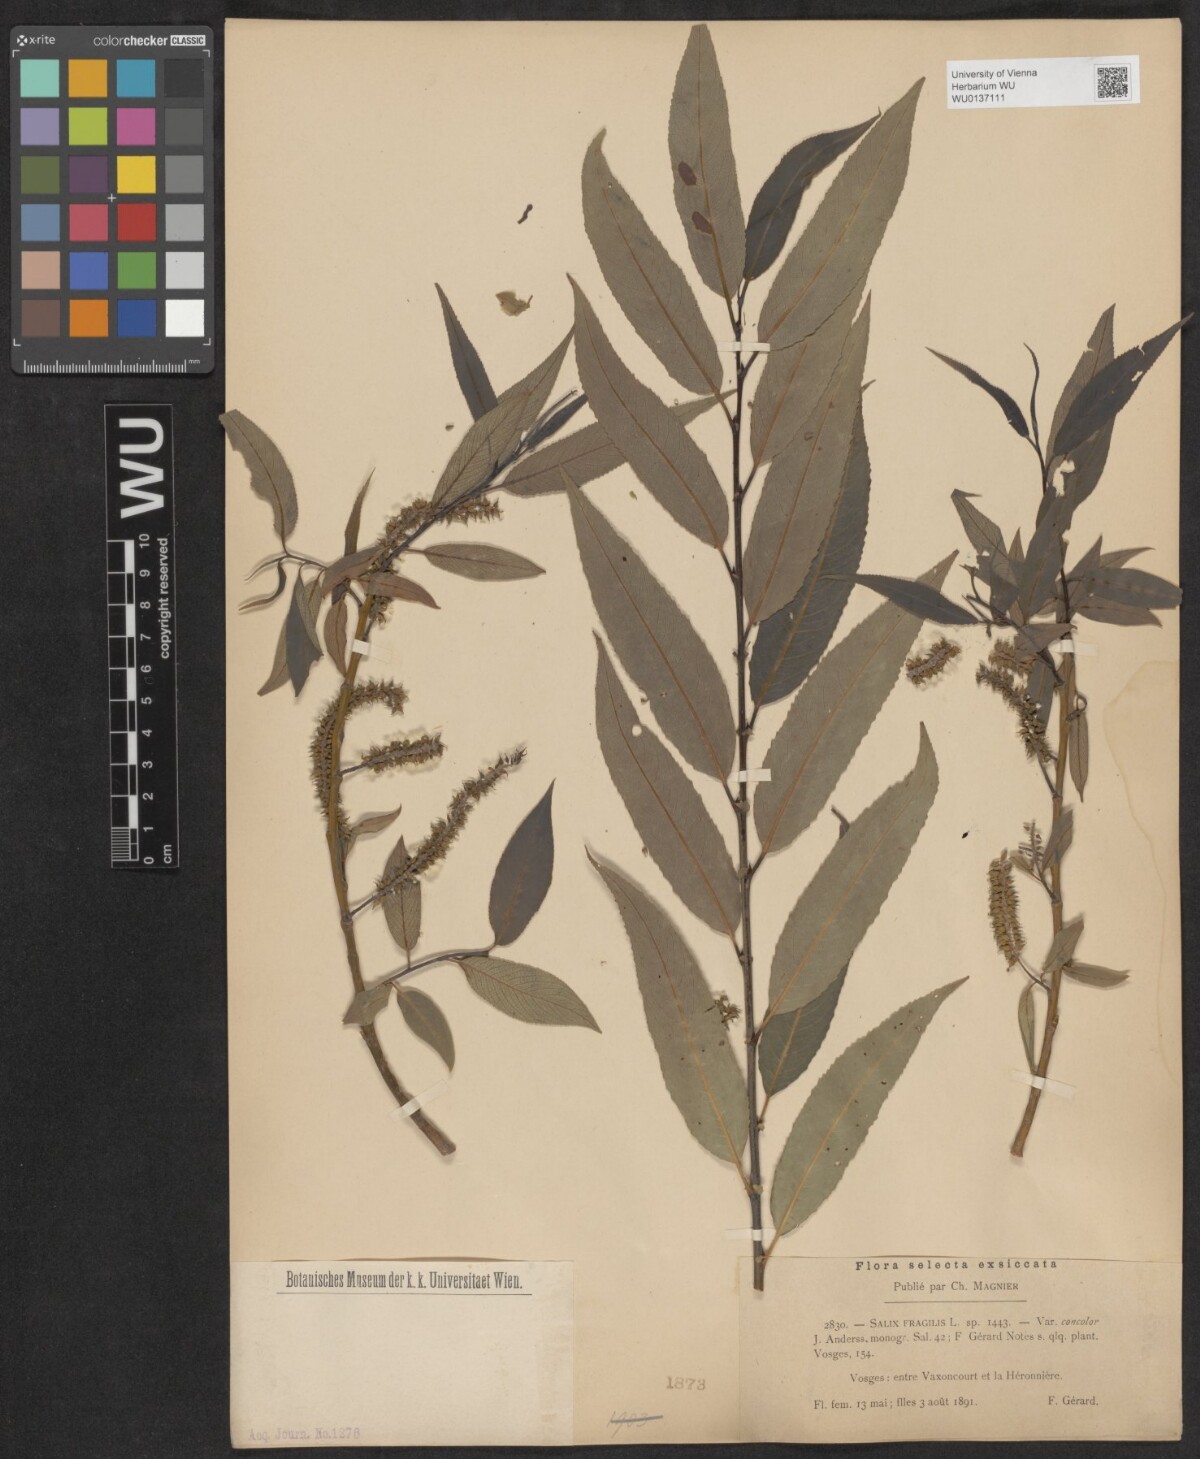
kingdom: Plantae
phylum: Tracheophyta
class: Magnoliopsida
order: Malpighiales
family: Salicaceae
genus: Salix
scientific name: Salix fragilis
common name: Crack willow
